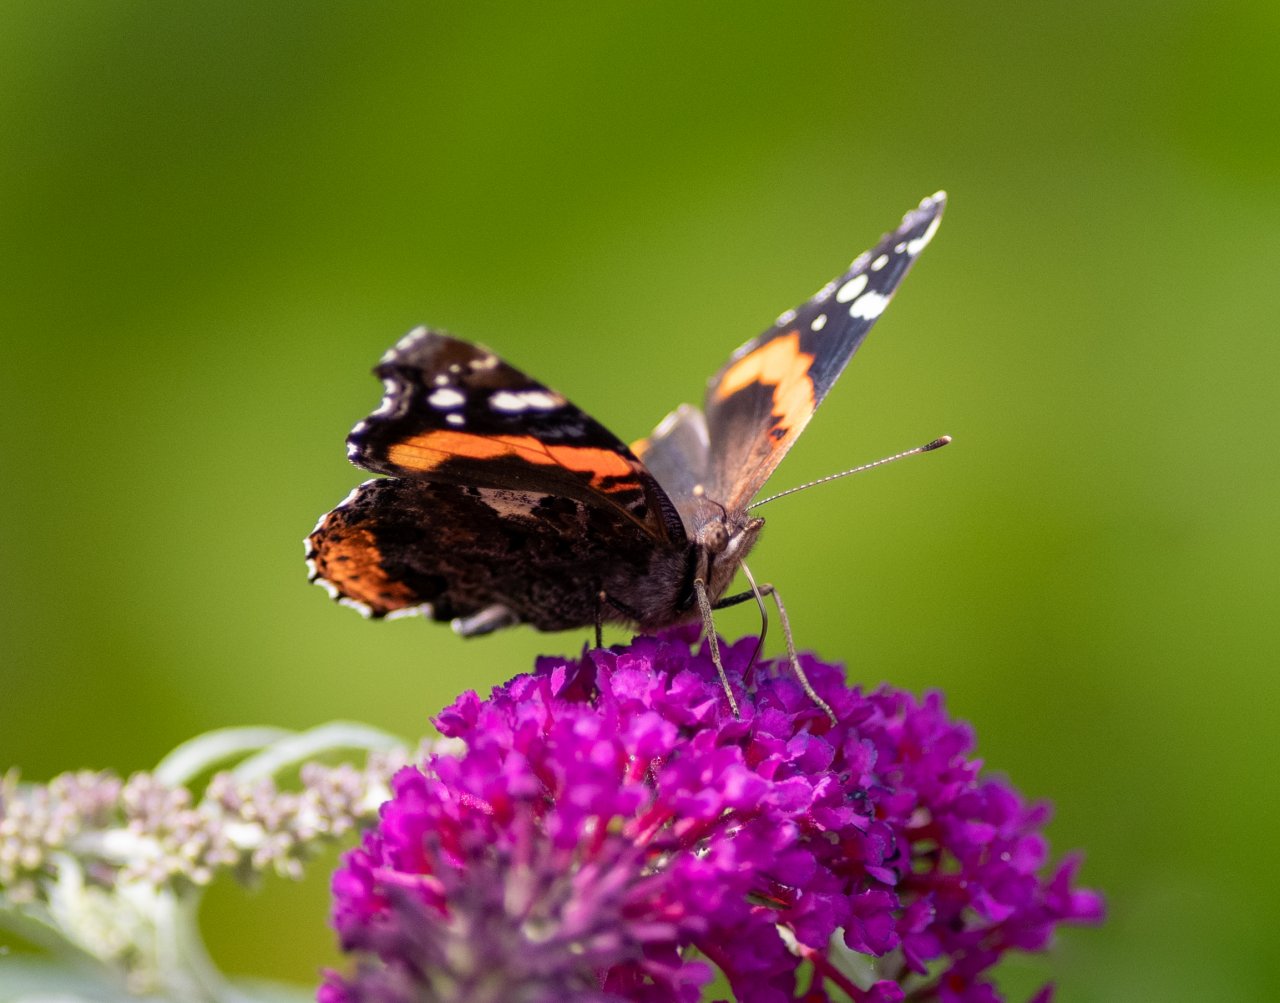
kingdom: Animalia
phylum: Arthropoda
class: Insecta
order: Lepidoptera
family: Nymphalidae
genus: Vanessa
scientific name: Vanessa atalanta
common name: Red Admiral
